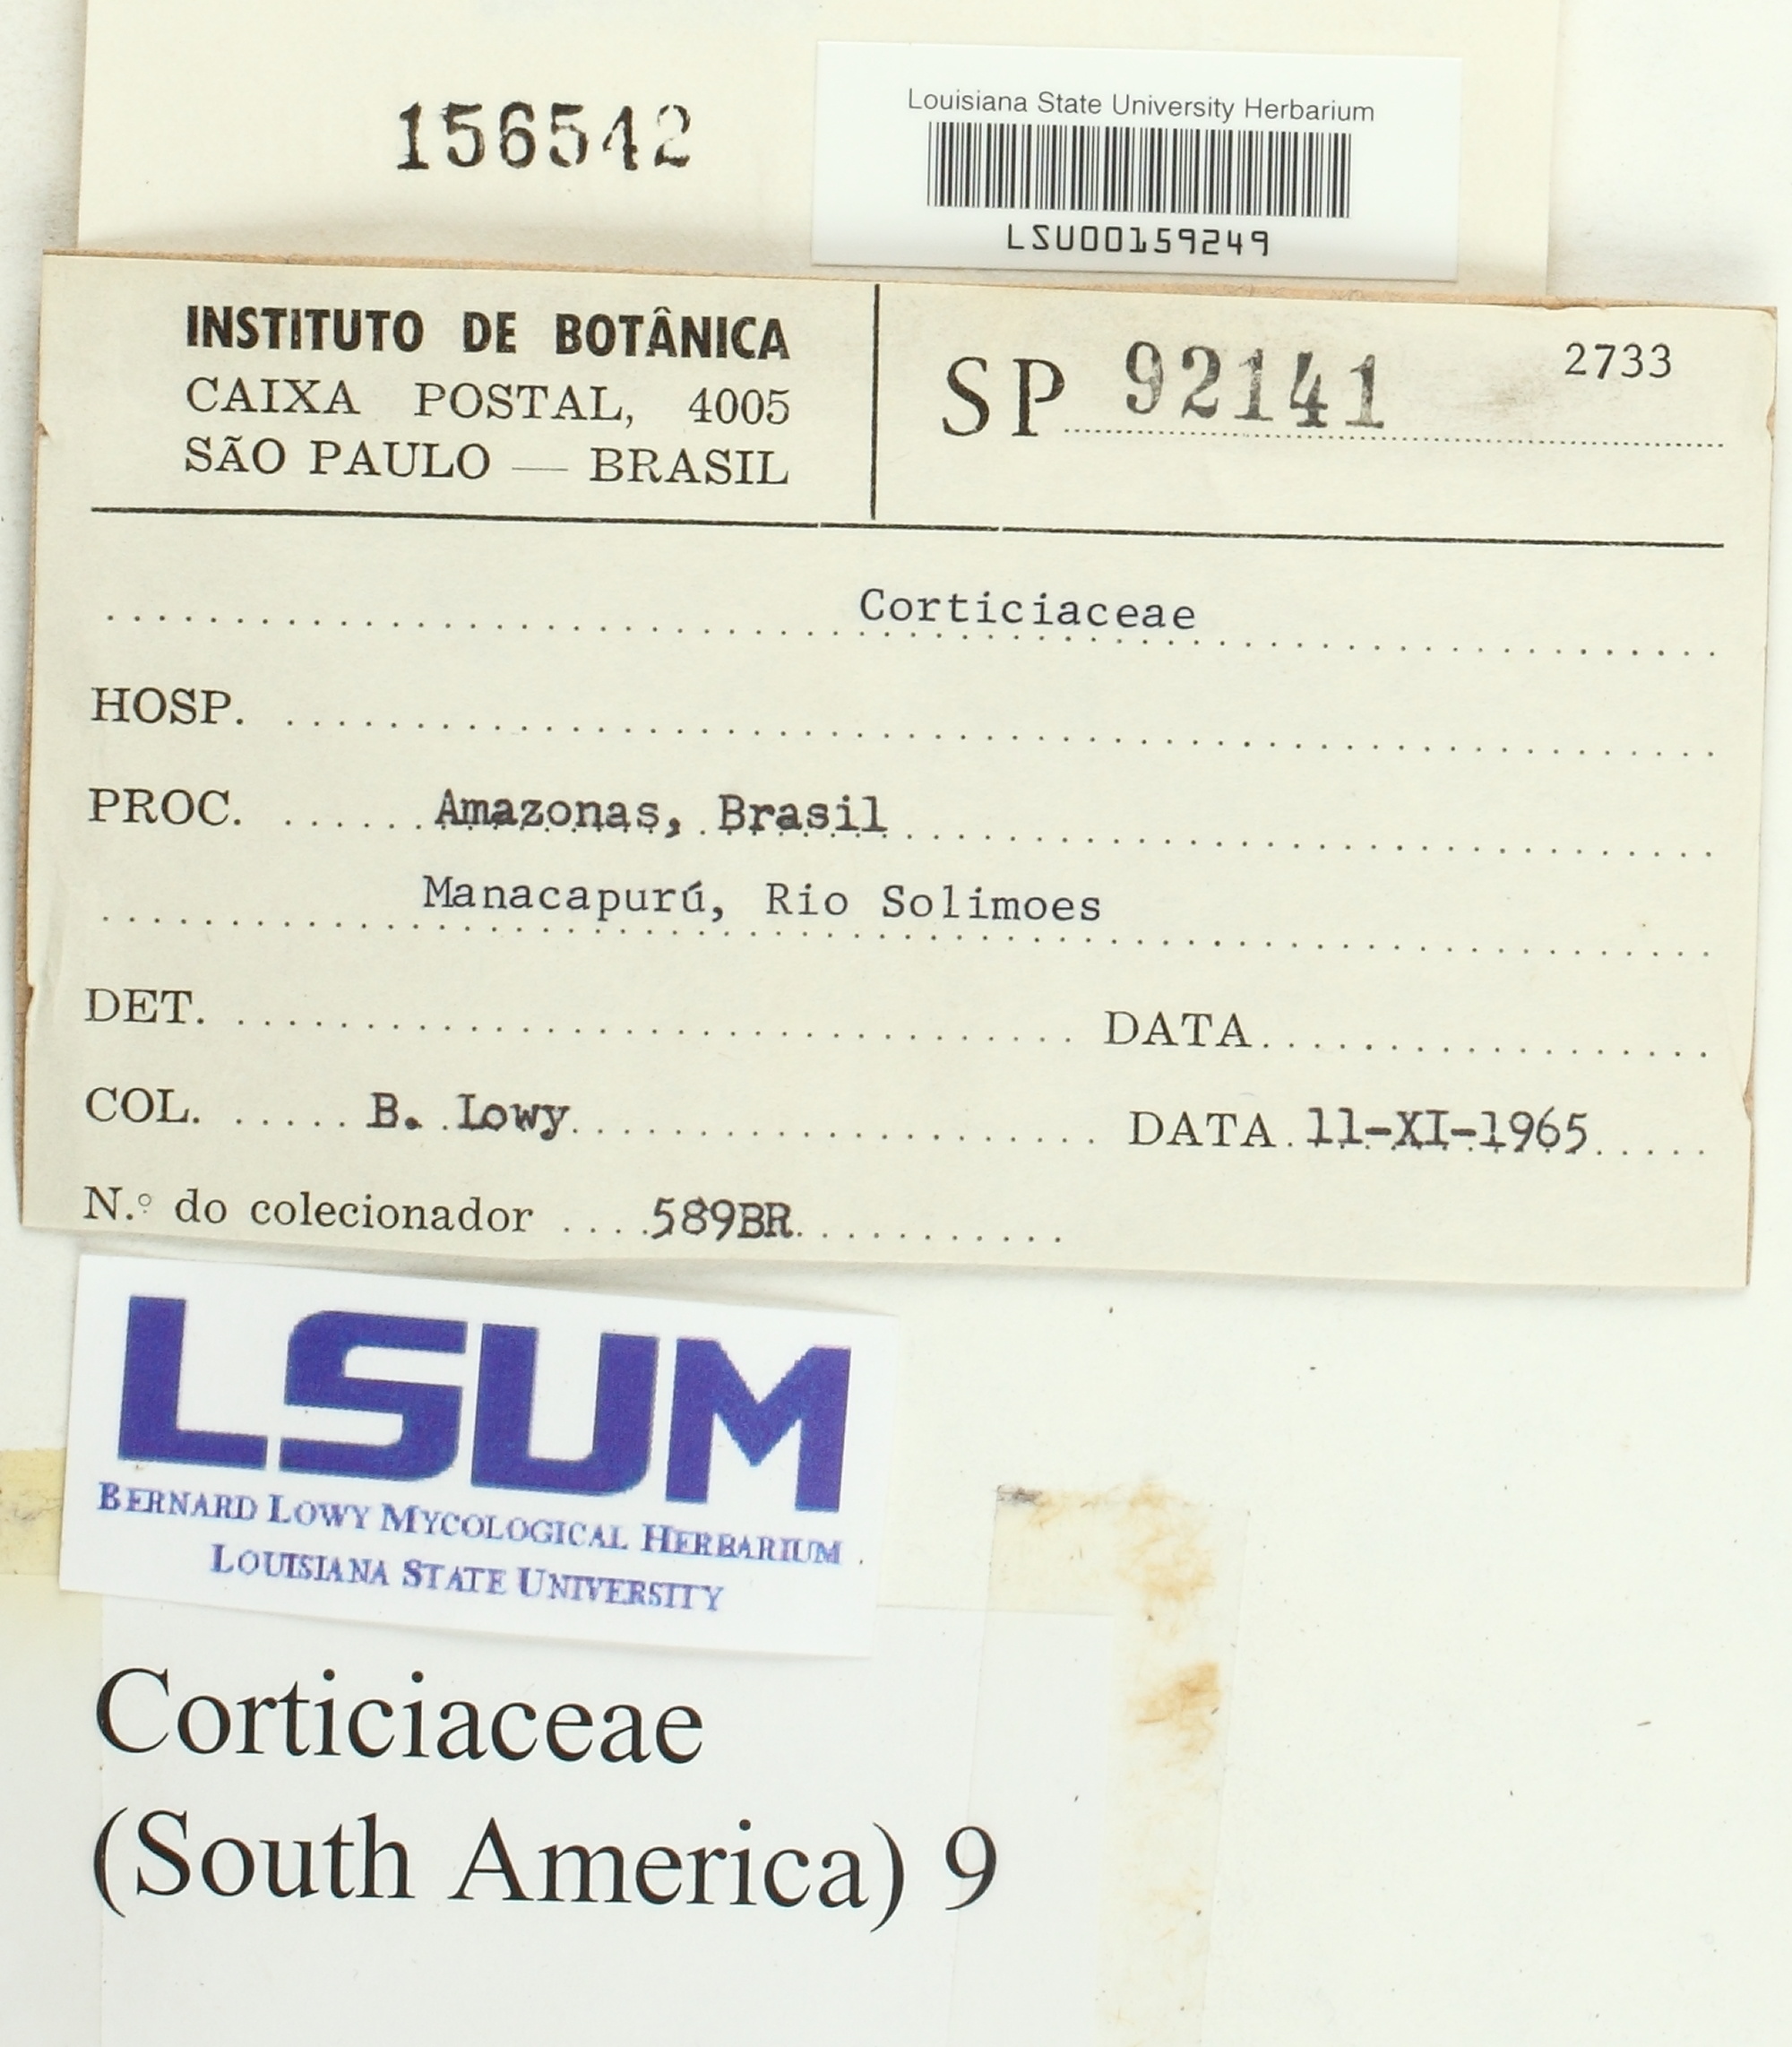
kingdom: Fungi
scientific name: Fungi
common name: Fungi
